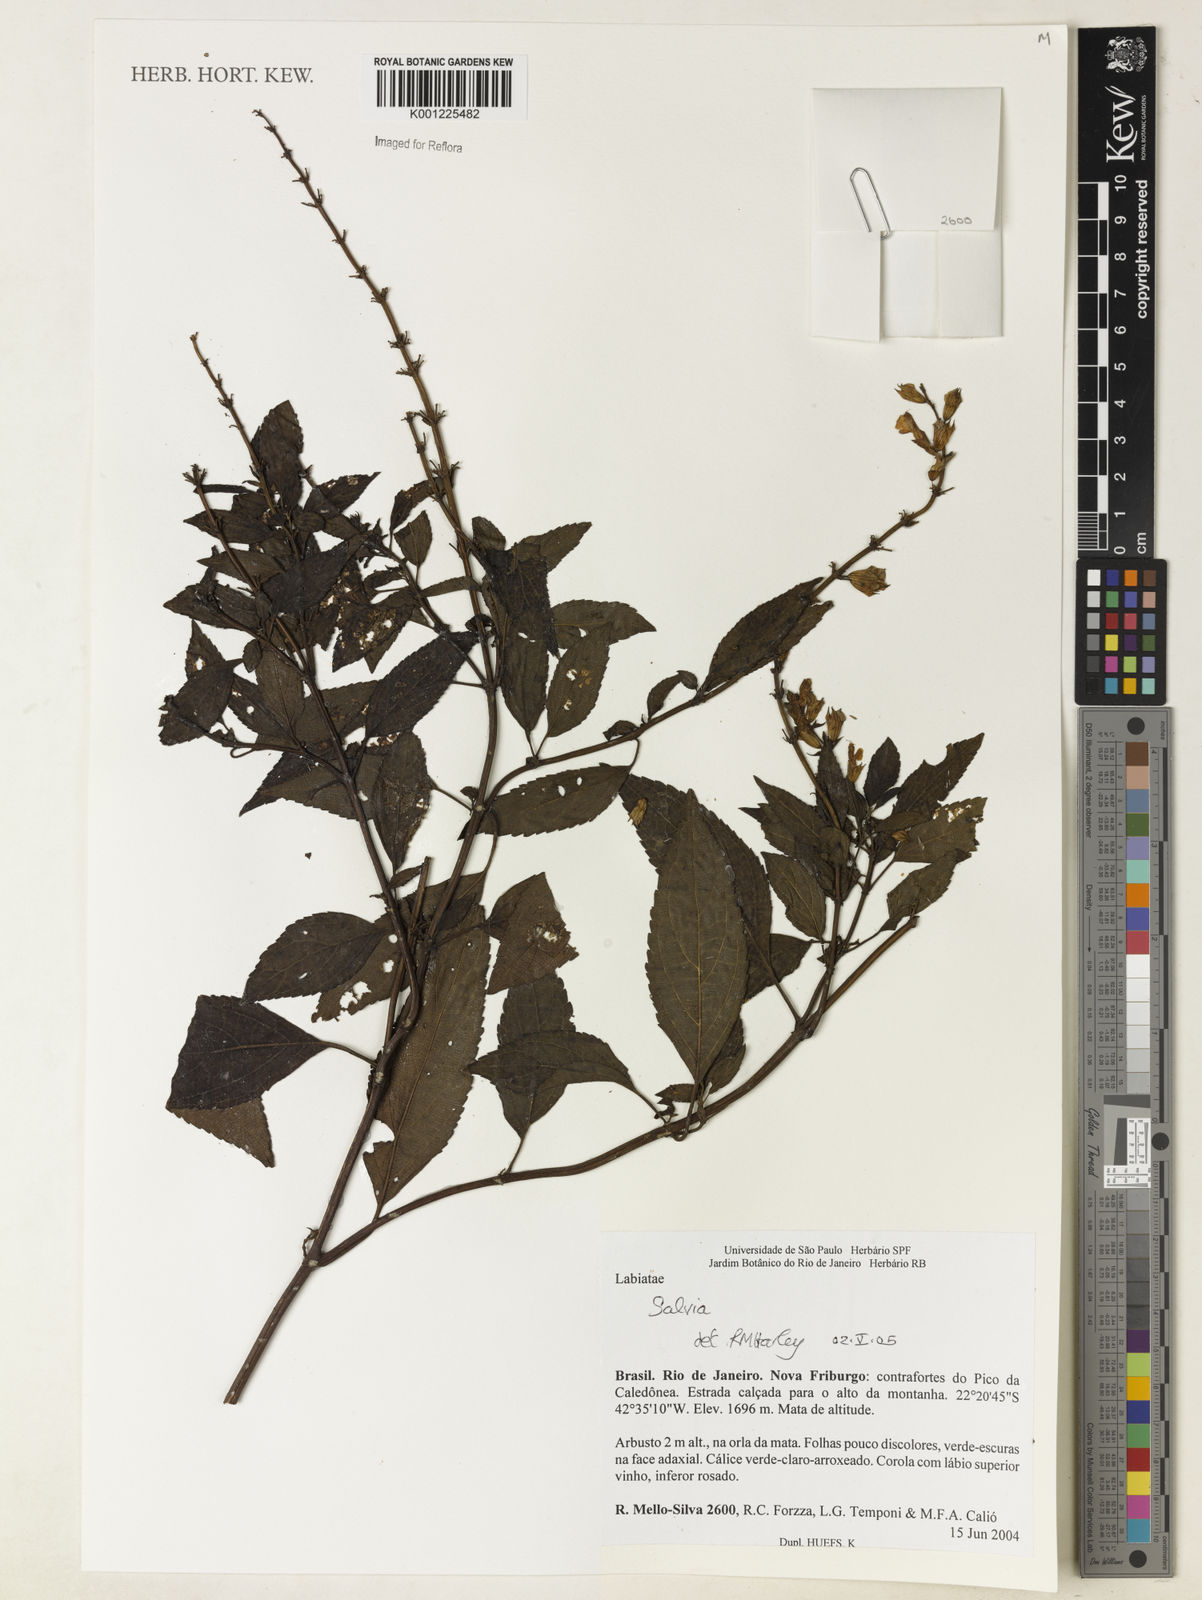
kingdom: Plantae
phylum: Tracheophyta
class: Magnoliopsida
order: Lamiales
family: Lamiaceae
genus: Salvia
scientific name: Salvia
